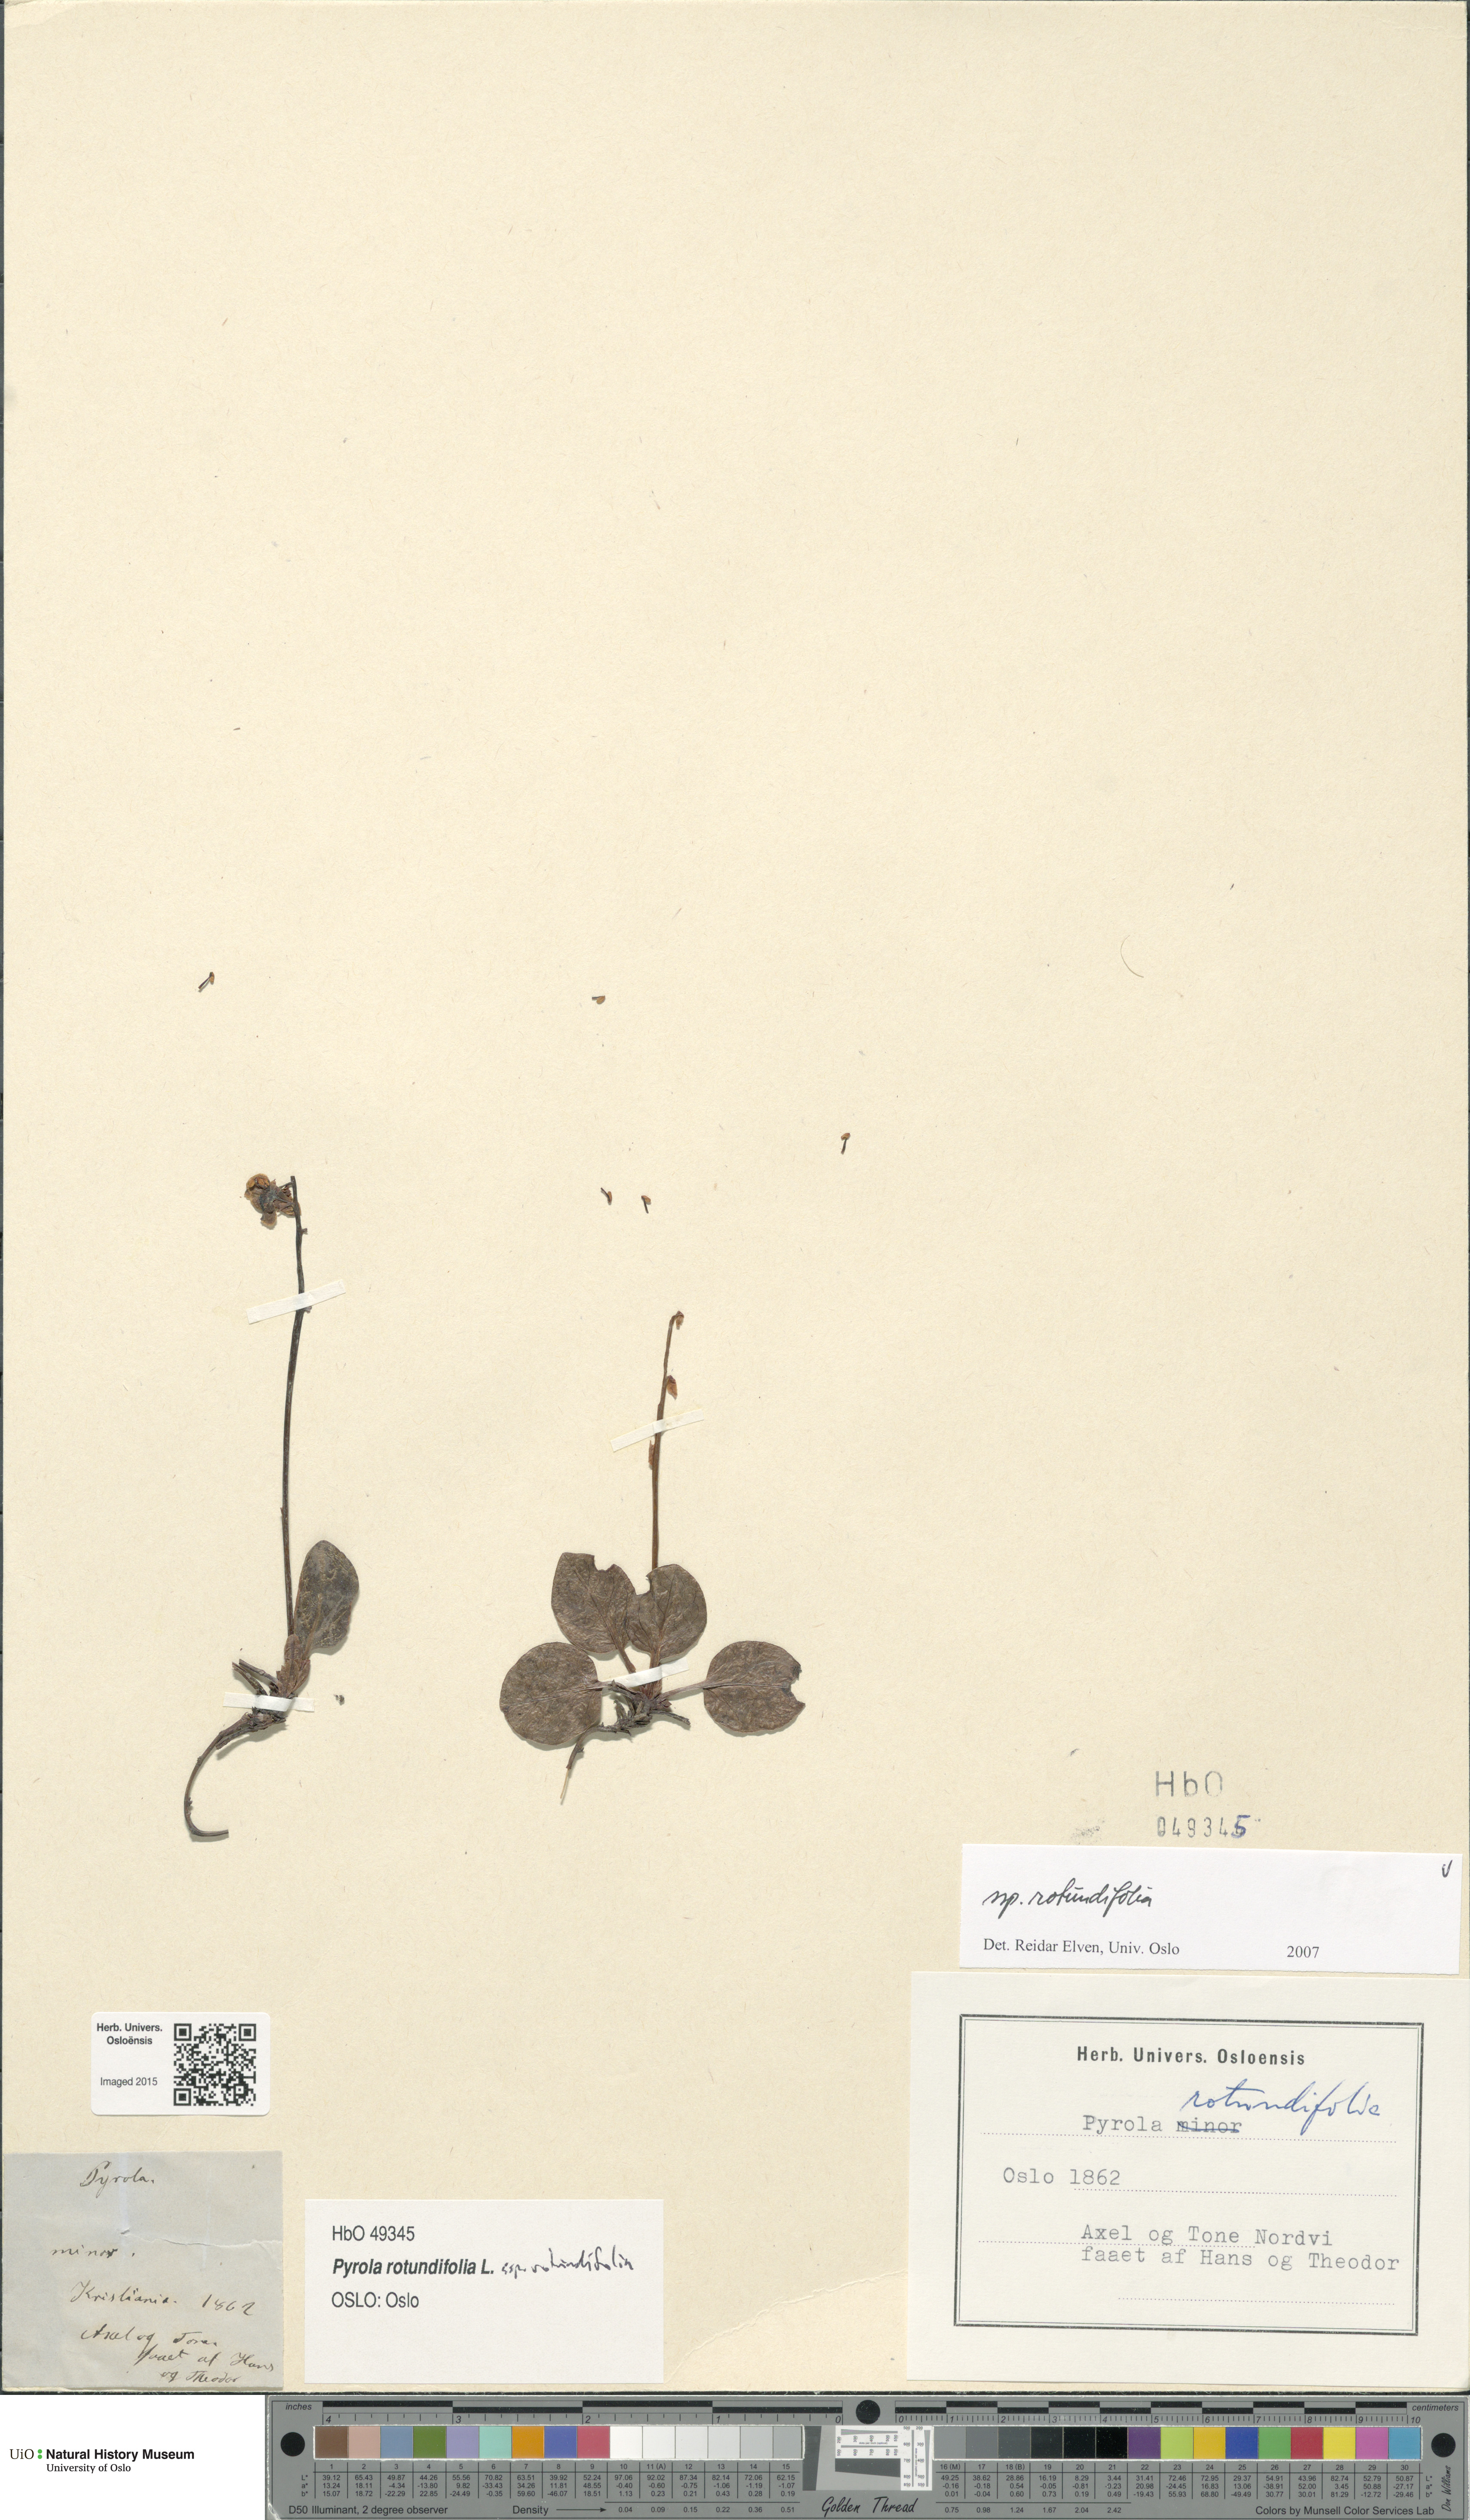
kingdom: Plantae
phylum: Tracheophyta
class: Magnoliopsida
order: Ericales
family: Ericaceae
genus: Pyrola
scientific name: Pyrola rotundifolia
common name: Round-leaved wintergreen
